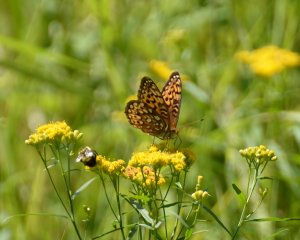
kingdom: Animalia
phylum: Arthropoda
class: Insecta
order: Lepidoptera
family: Nymphalidae
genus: Speyeria
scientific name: Speyeria atlantis
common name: Atlantis Fritillary
